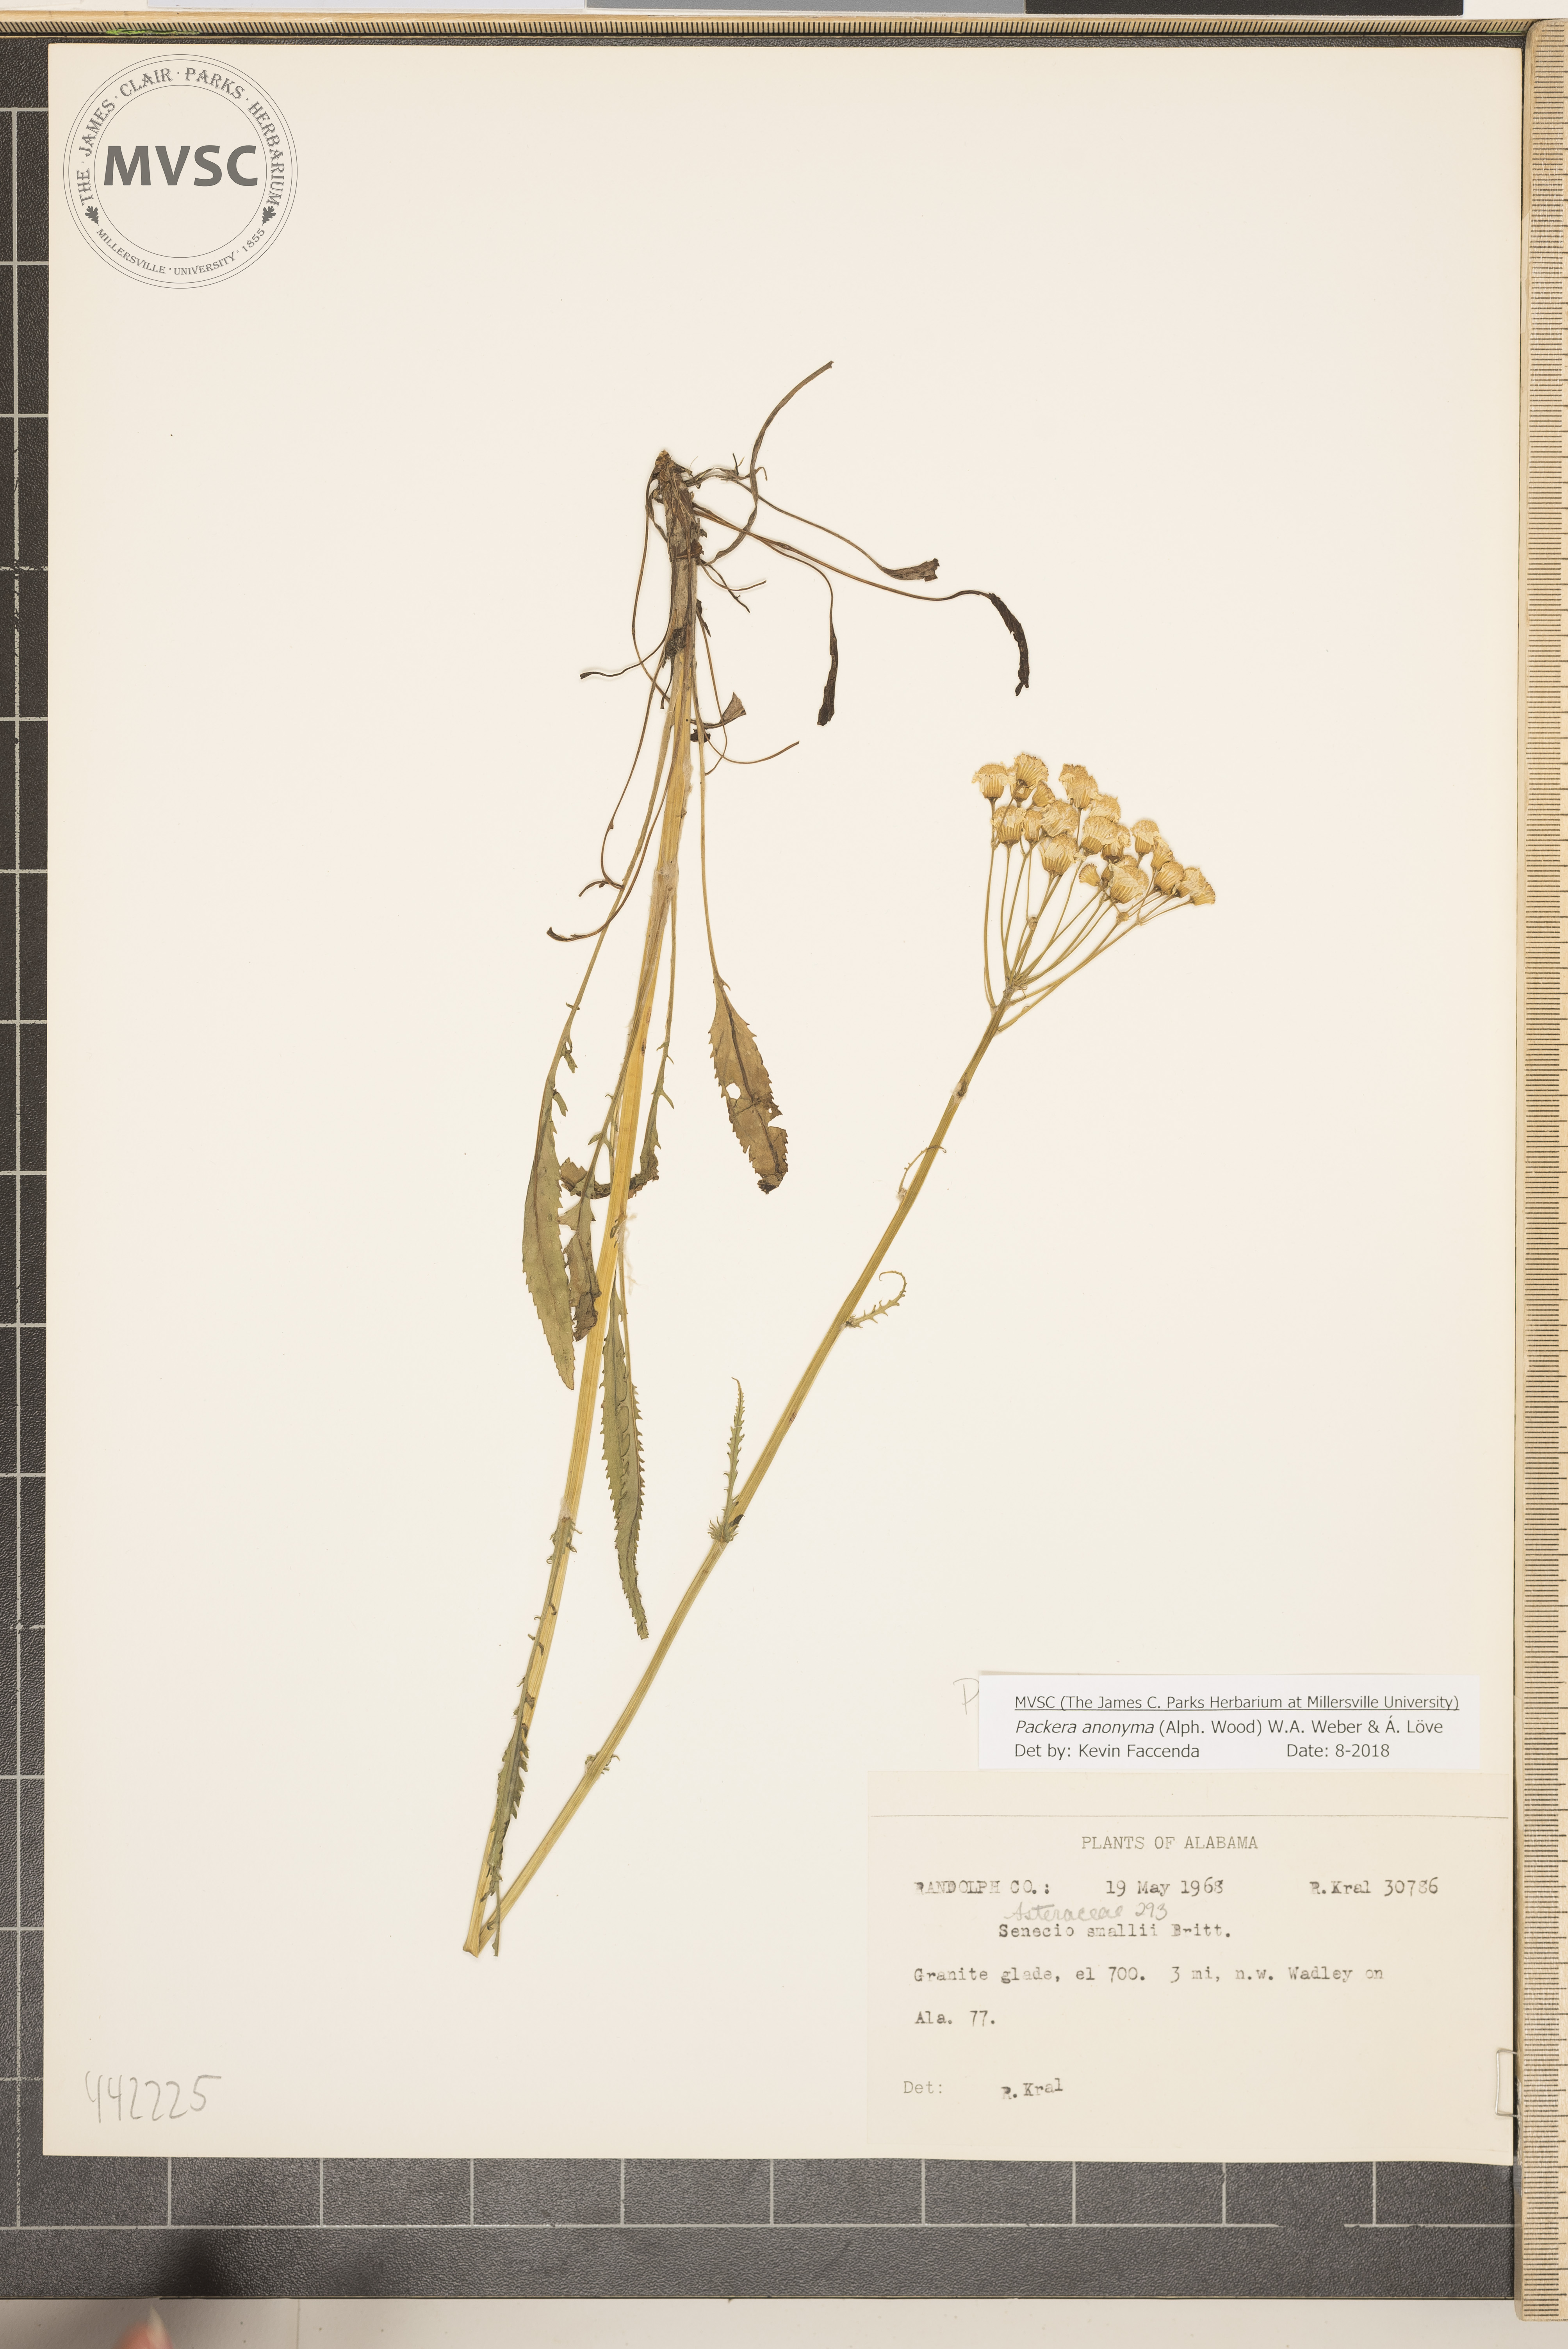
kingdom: Plantae
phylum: Tracheophyta
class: Magnoliopsida
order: Asterales
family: Asteraceae
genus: Packera
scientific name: Packera anonyma
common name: Small ragwort
